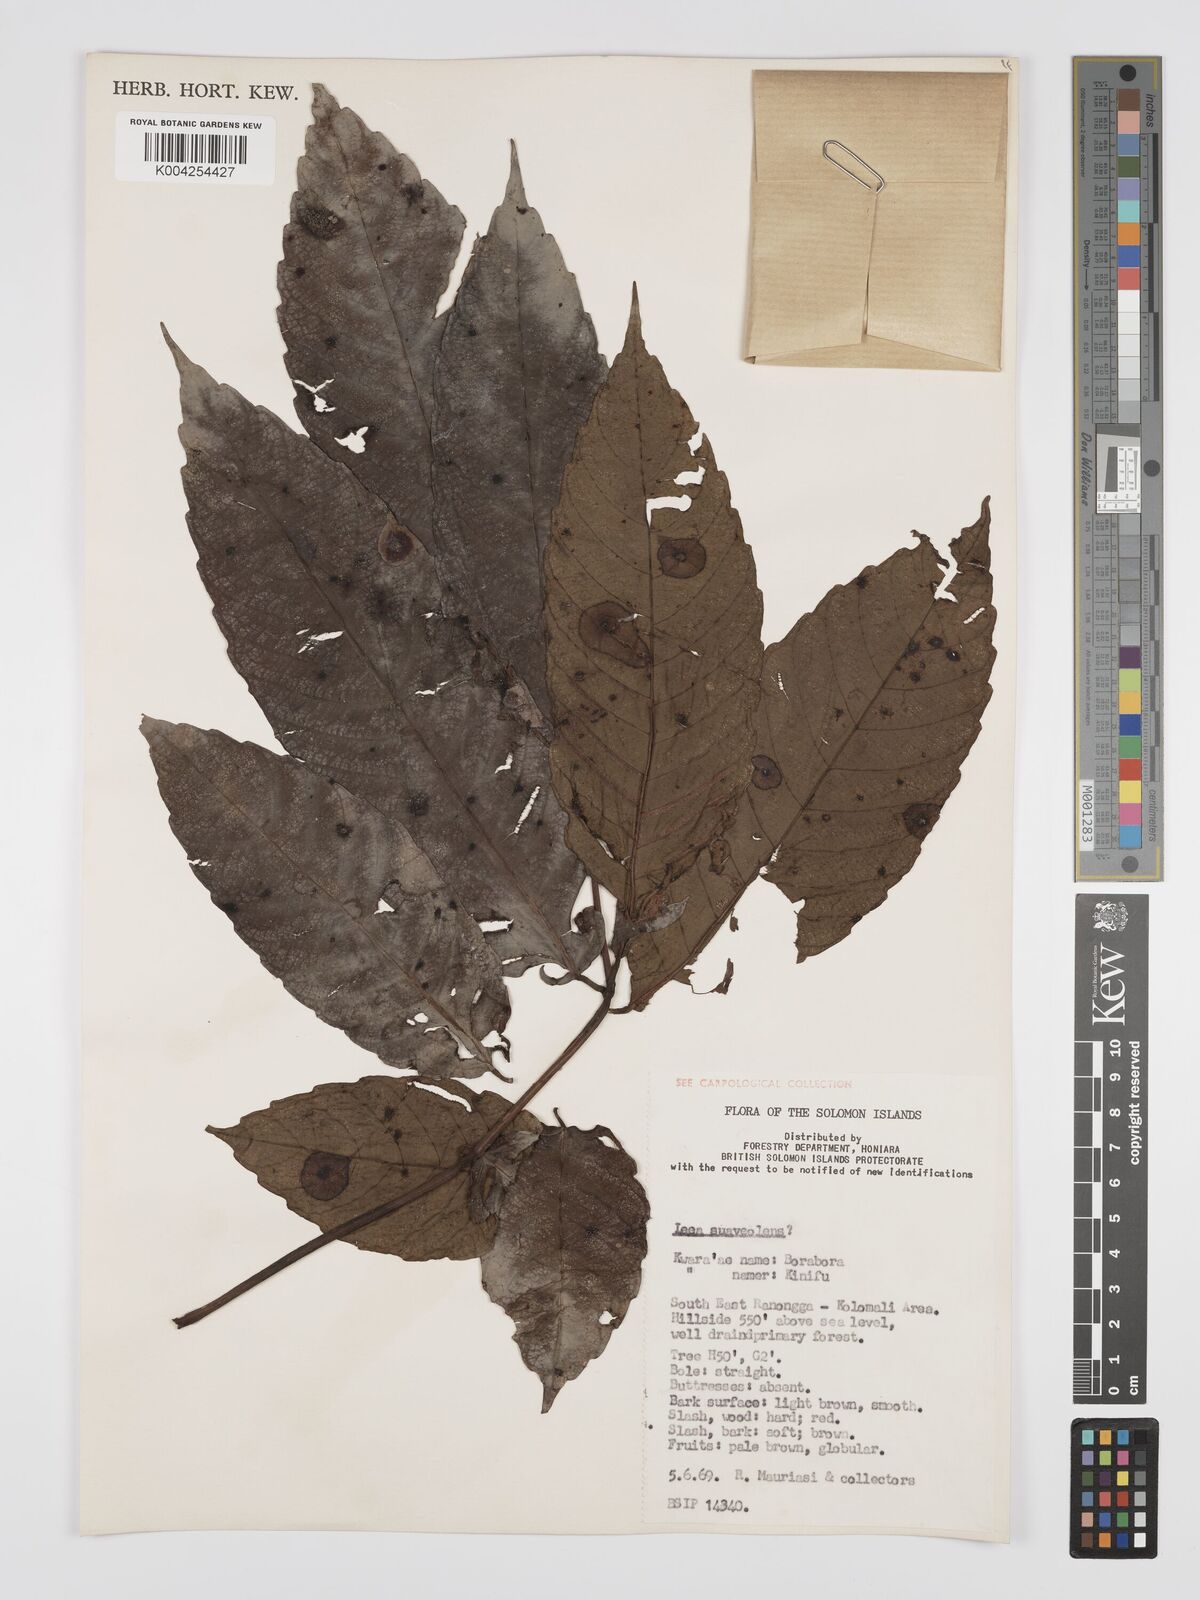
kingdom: Plantae
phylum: Tracheophyta
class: Magnoliopsida
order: Vitales
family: Vitaceae
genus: Leea
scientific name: Leea tetramera
